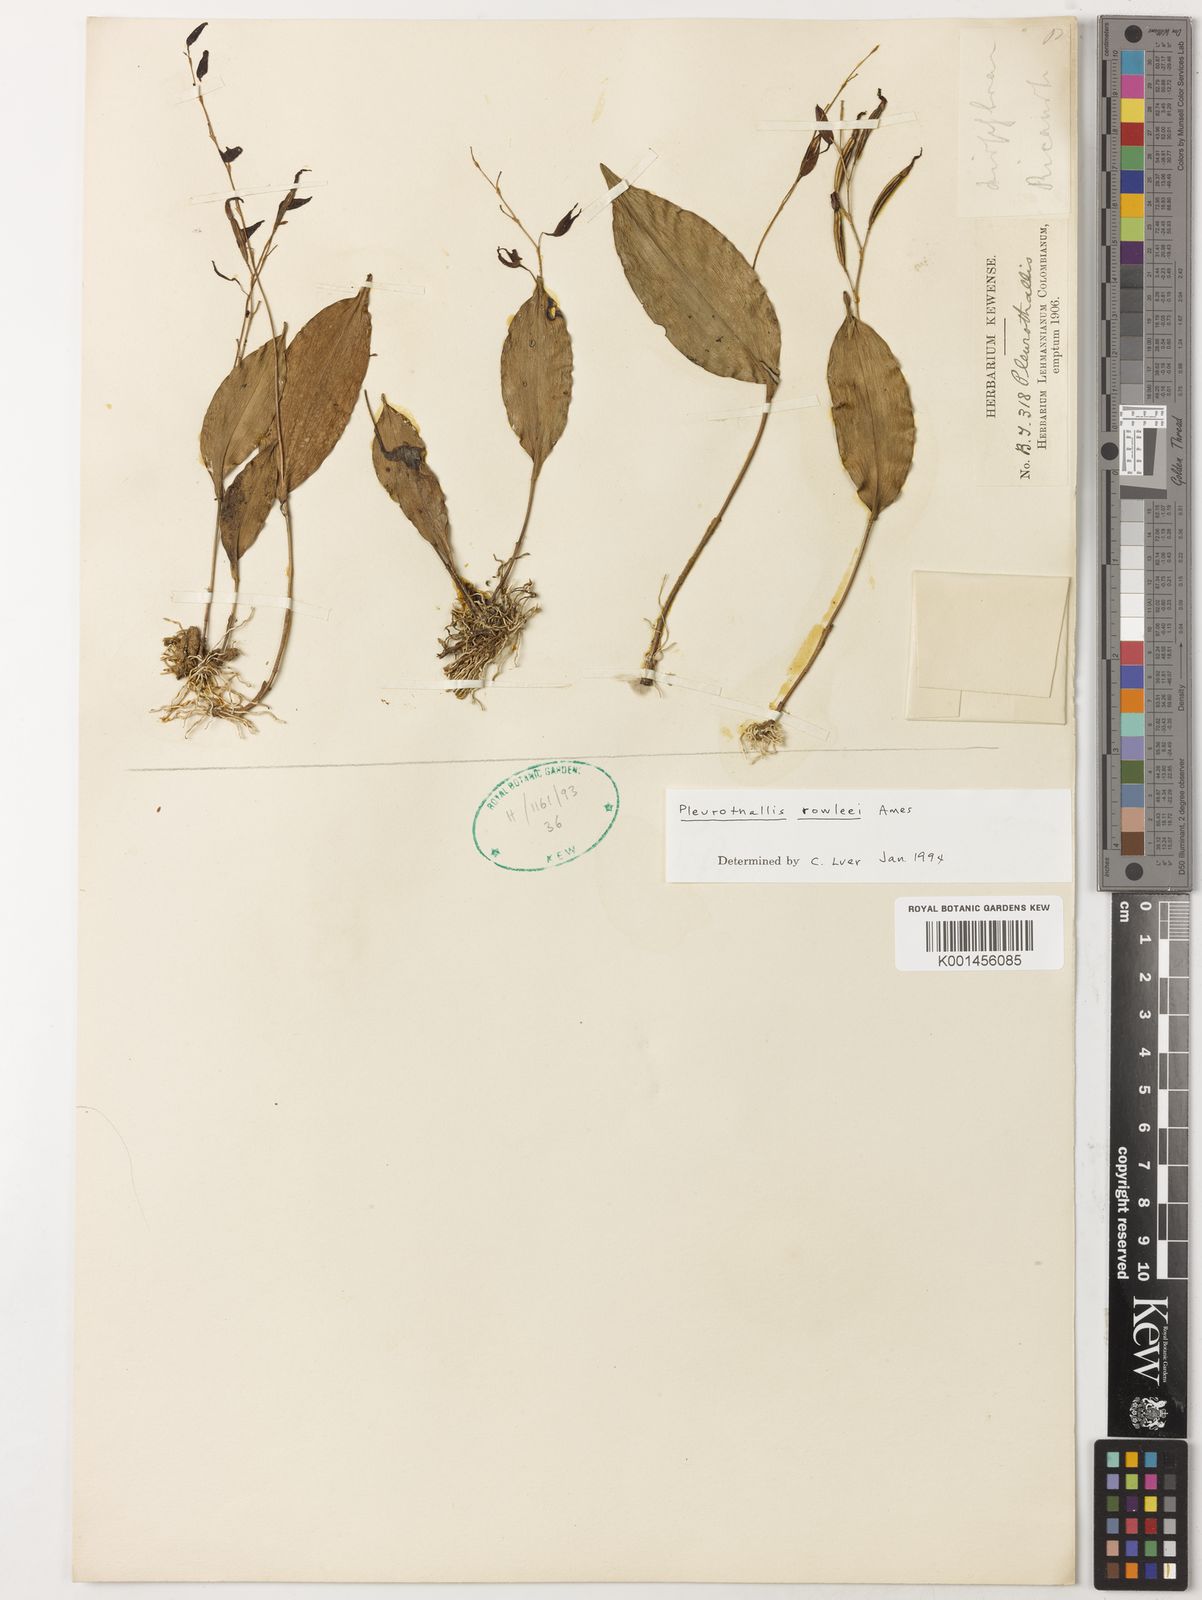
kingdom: Plantae
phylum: Tracheophyta
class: Liliopsida
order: Asparagales
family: Orchidaceae
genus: Pleurothallis
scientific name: Pleurothallis rowleei
